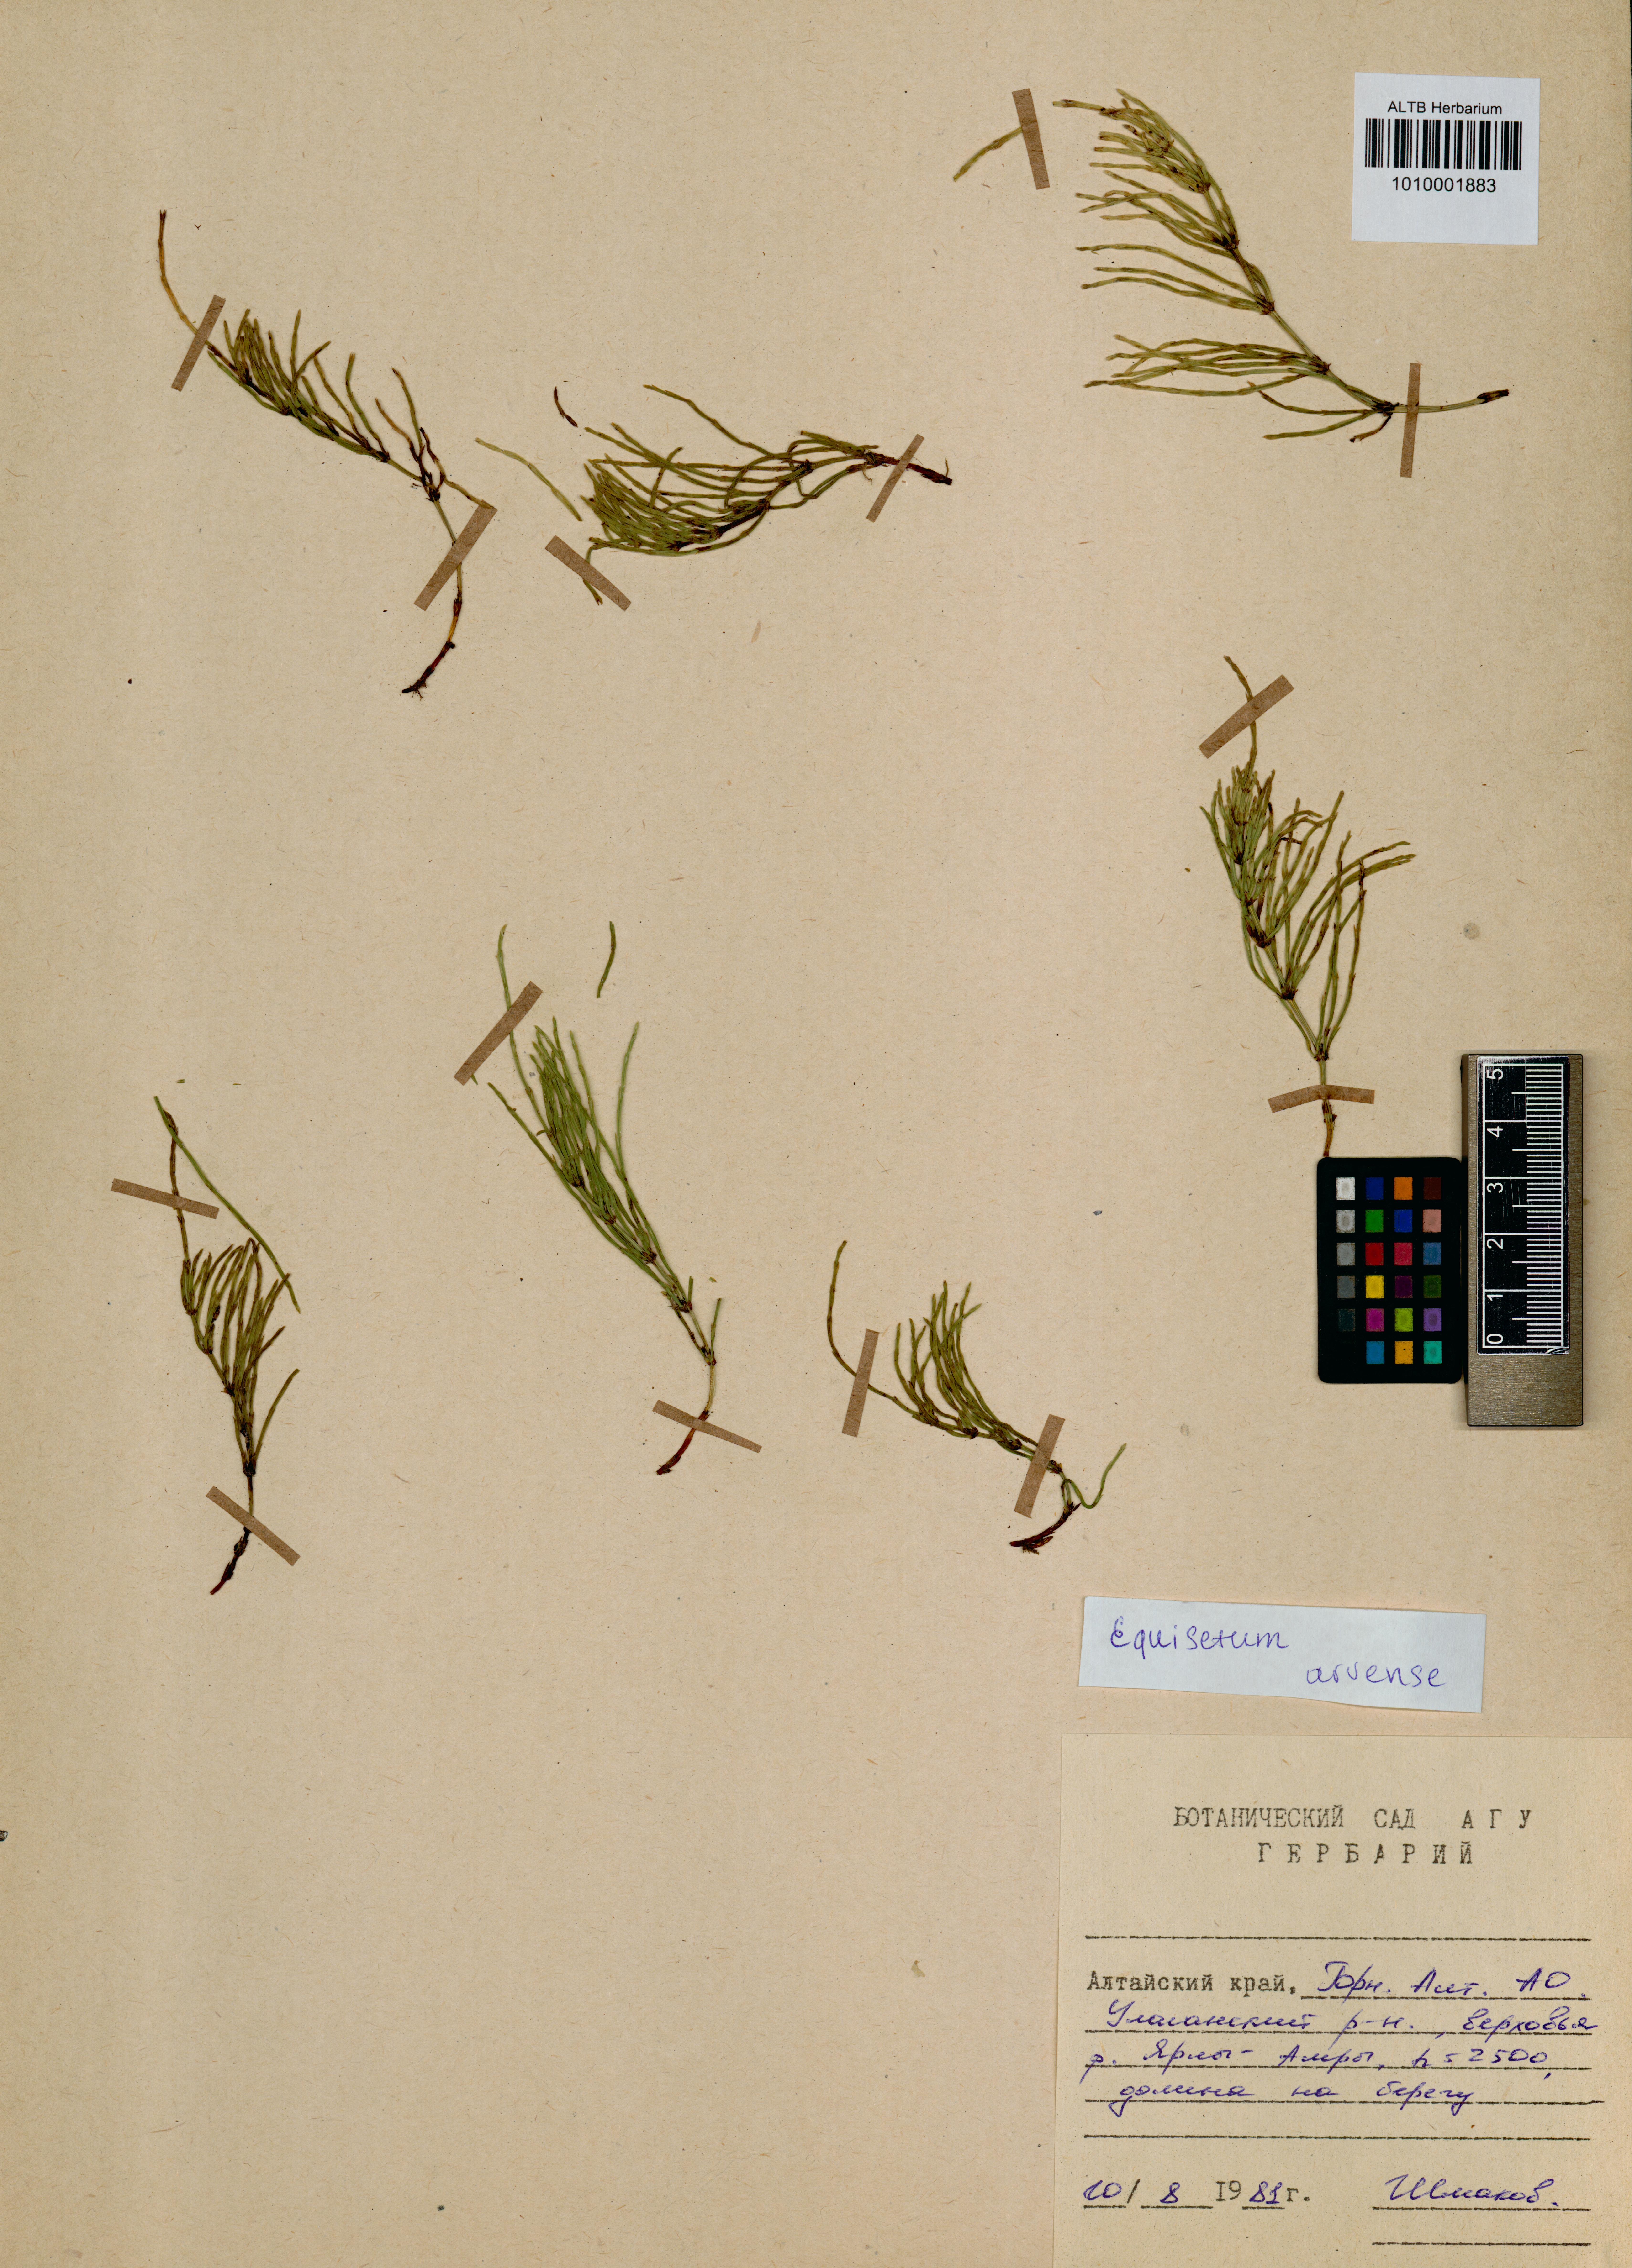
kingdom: Plantae
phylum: Tracheophyta
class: Polypodiopsida
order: Equisetales
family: Equisetaceae
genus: Equisetum
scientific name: Equisetum arvense
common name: Field horsetail
